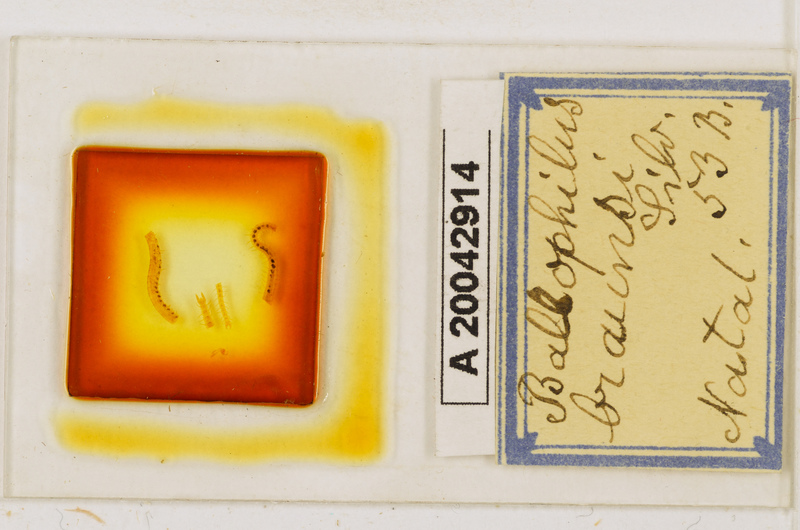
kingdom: Animalia
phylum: Arthropoda
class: Chilopoda
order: Geophilomorpha
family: Ballophilidae
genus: Ballophilus
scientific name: Ballophilus braunsi
